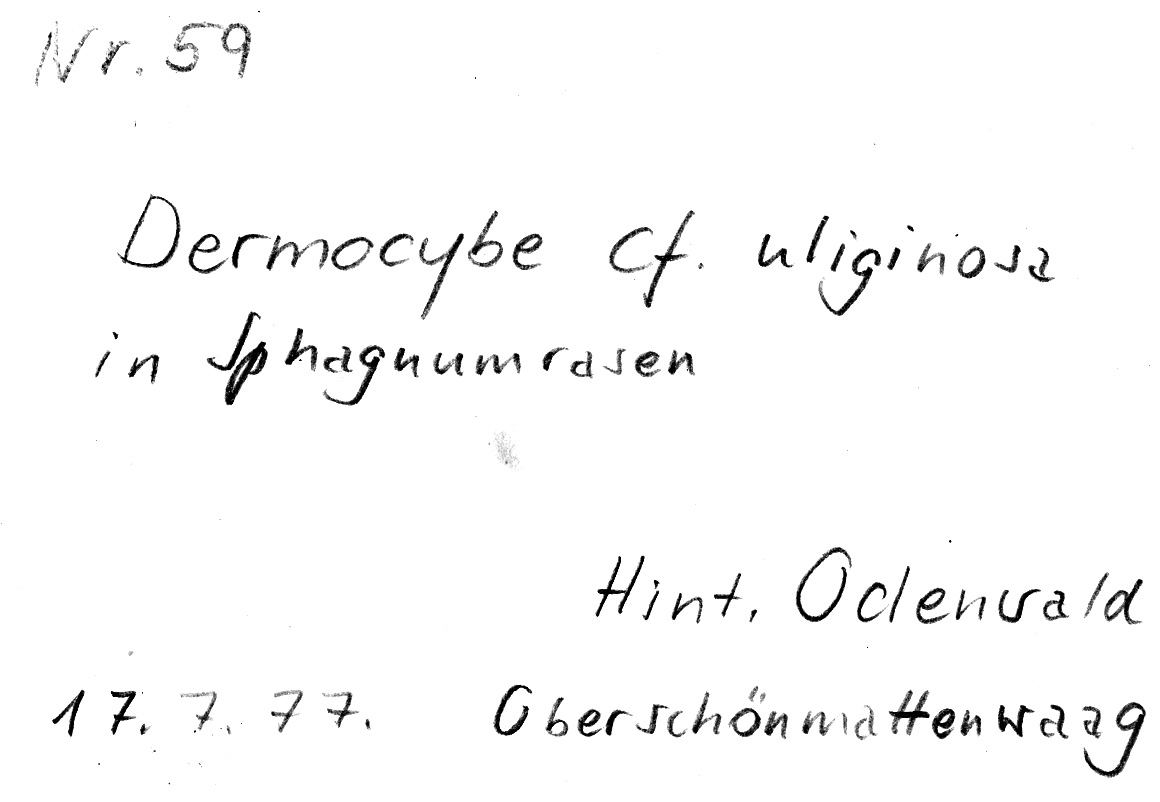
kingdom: Fungi
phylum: Basidiomycota
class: Agaricomycetes
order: Agaricales
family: Cortinariaceae
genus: Cortinarius
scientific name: Cortinarius uliginosus
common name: Marsh webcap
